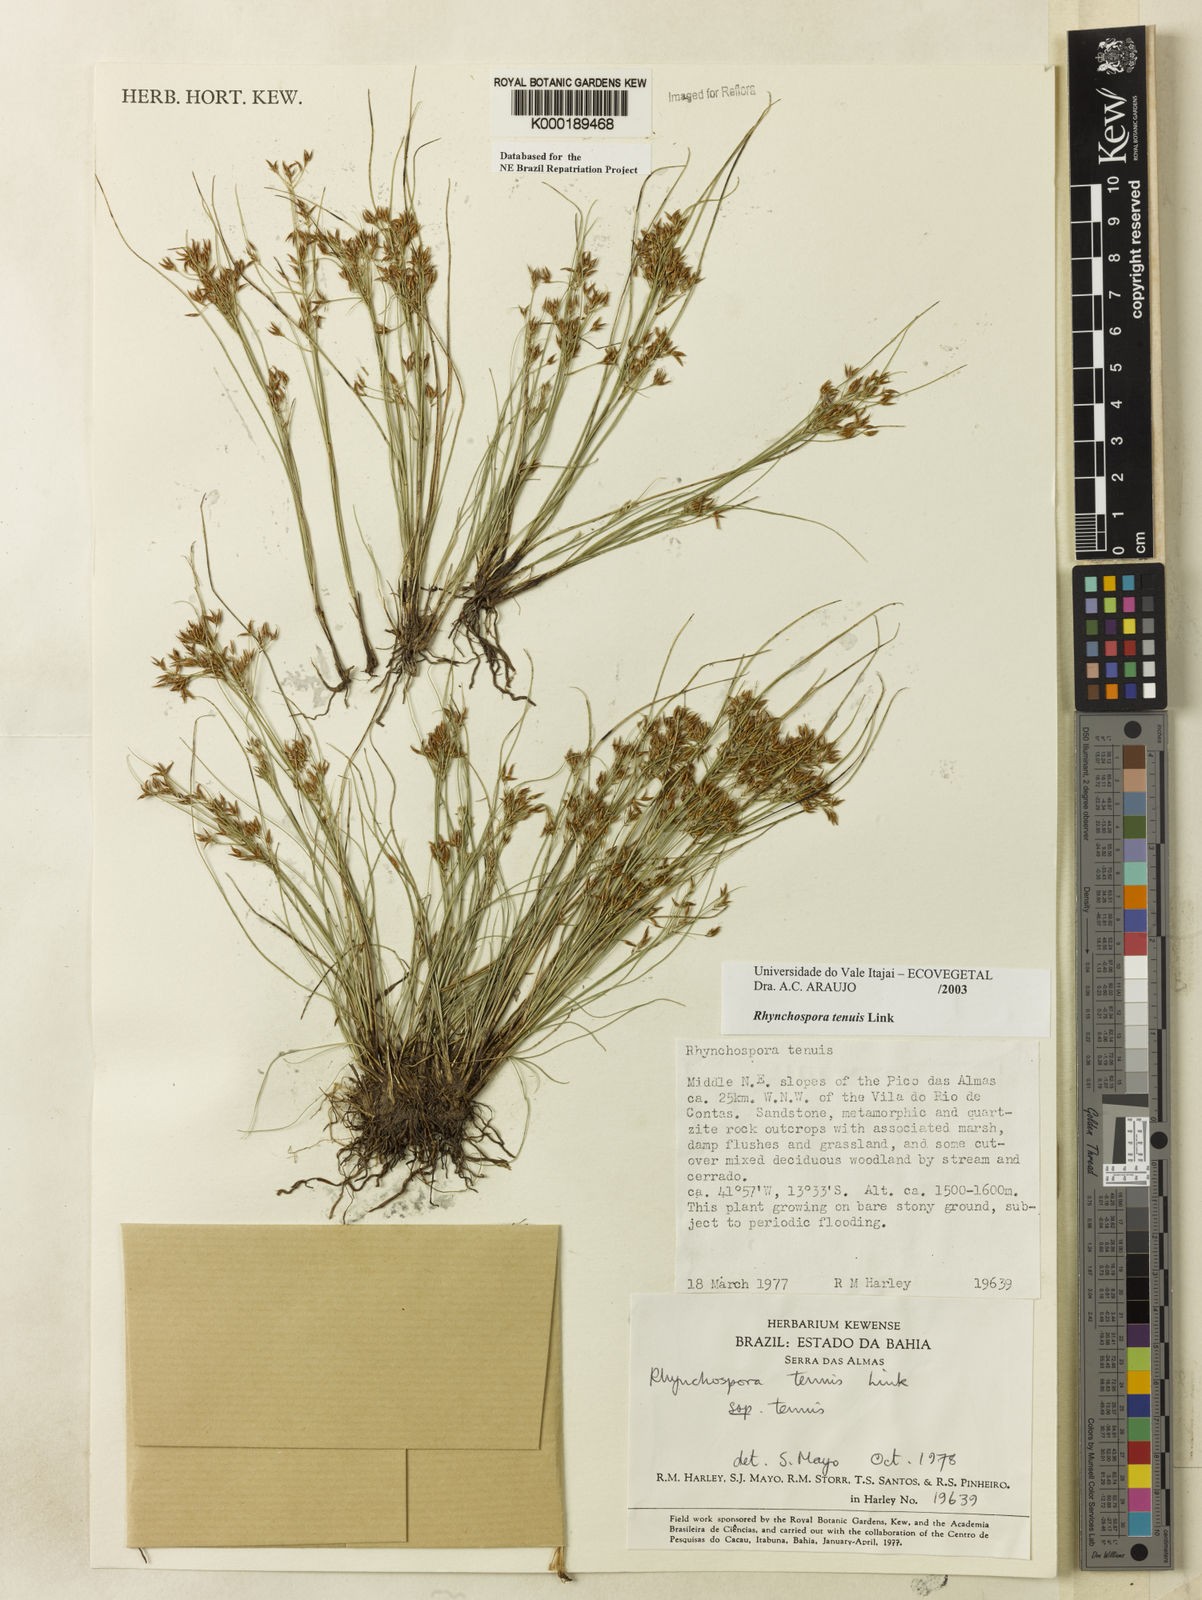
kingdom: Plantae
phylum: Tracheophyta
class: Liliopsida
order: Poales
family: Cyperaceae
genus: Rhynchospora
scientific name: Rhynchospora tenuis
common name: Quill beaksedge
